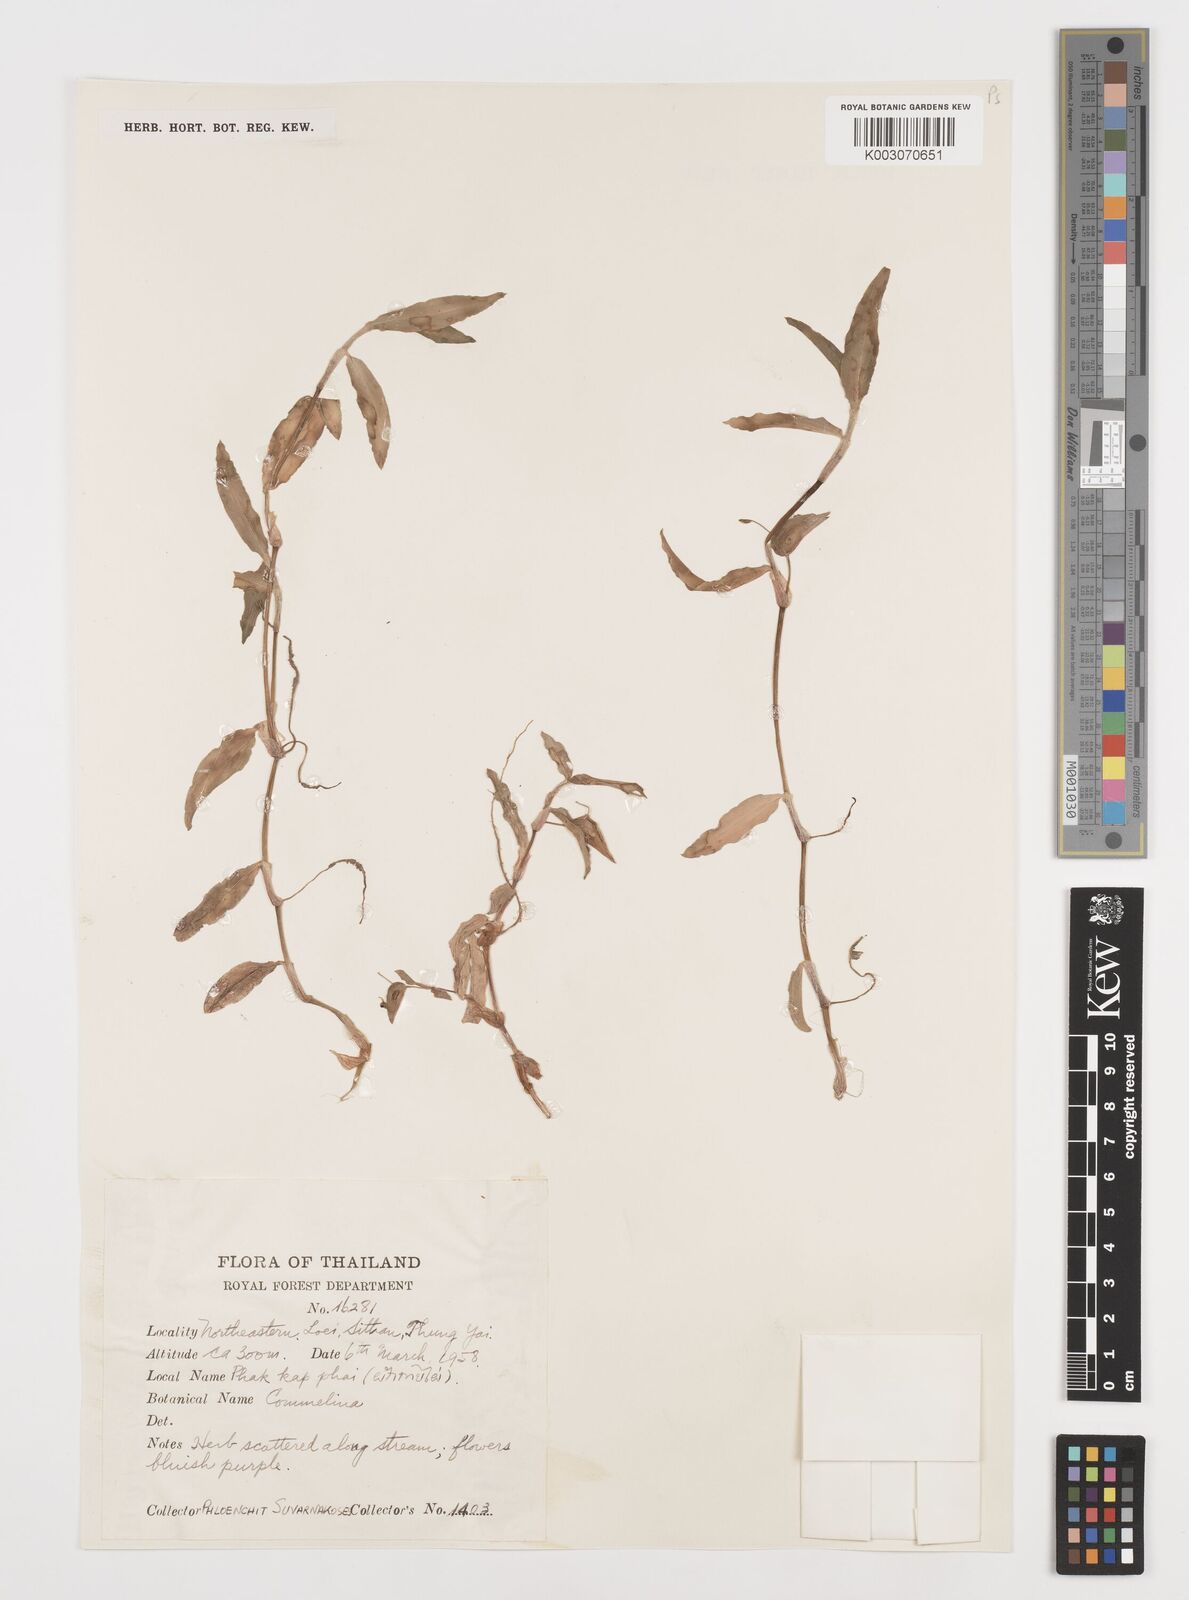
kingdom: Plantae
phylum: Tracheophyta
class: Liliopsida
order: Commelinales
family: Commelinaceae
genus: Commelina
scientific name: Commelina
